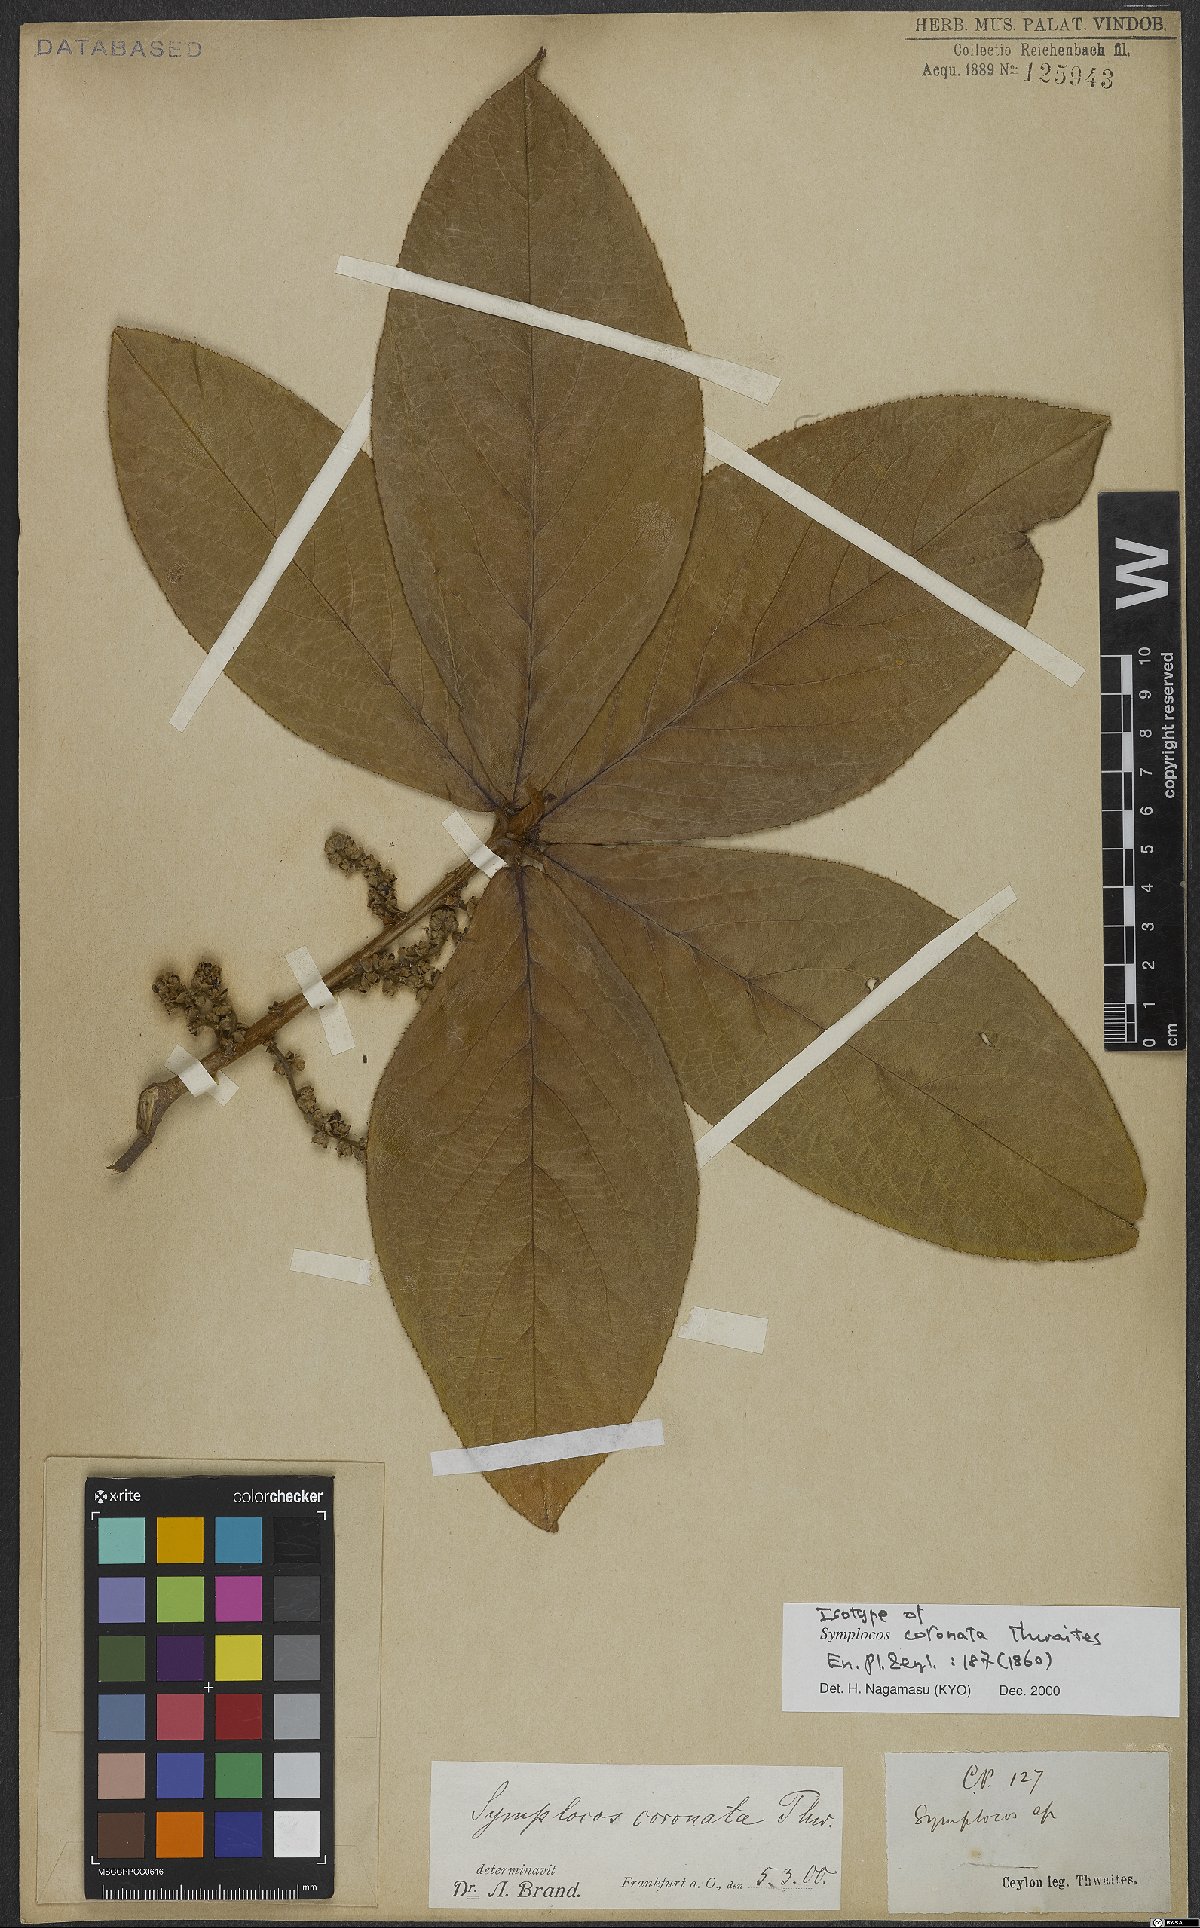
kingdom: Plantae
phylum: Tracheophyta
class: Magnoliopsida
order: Ericales
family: Symplocaceae
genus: Symplocos
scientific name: Symplocos coronata
